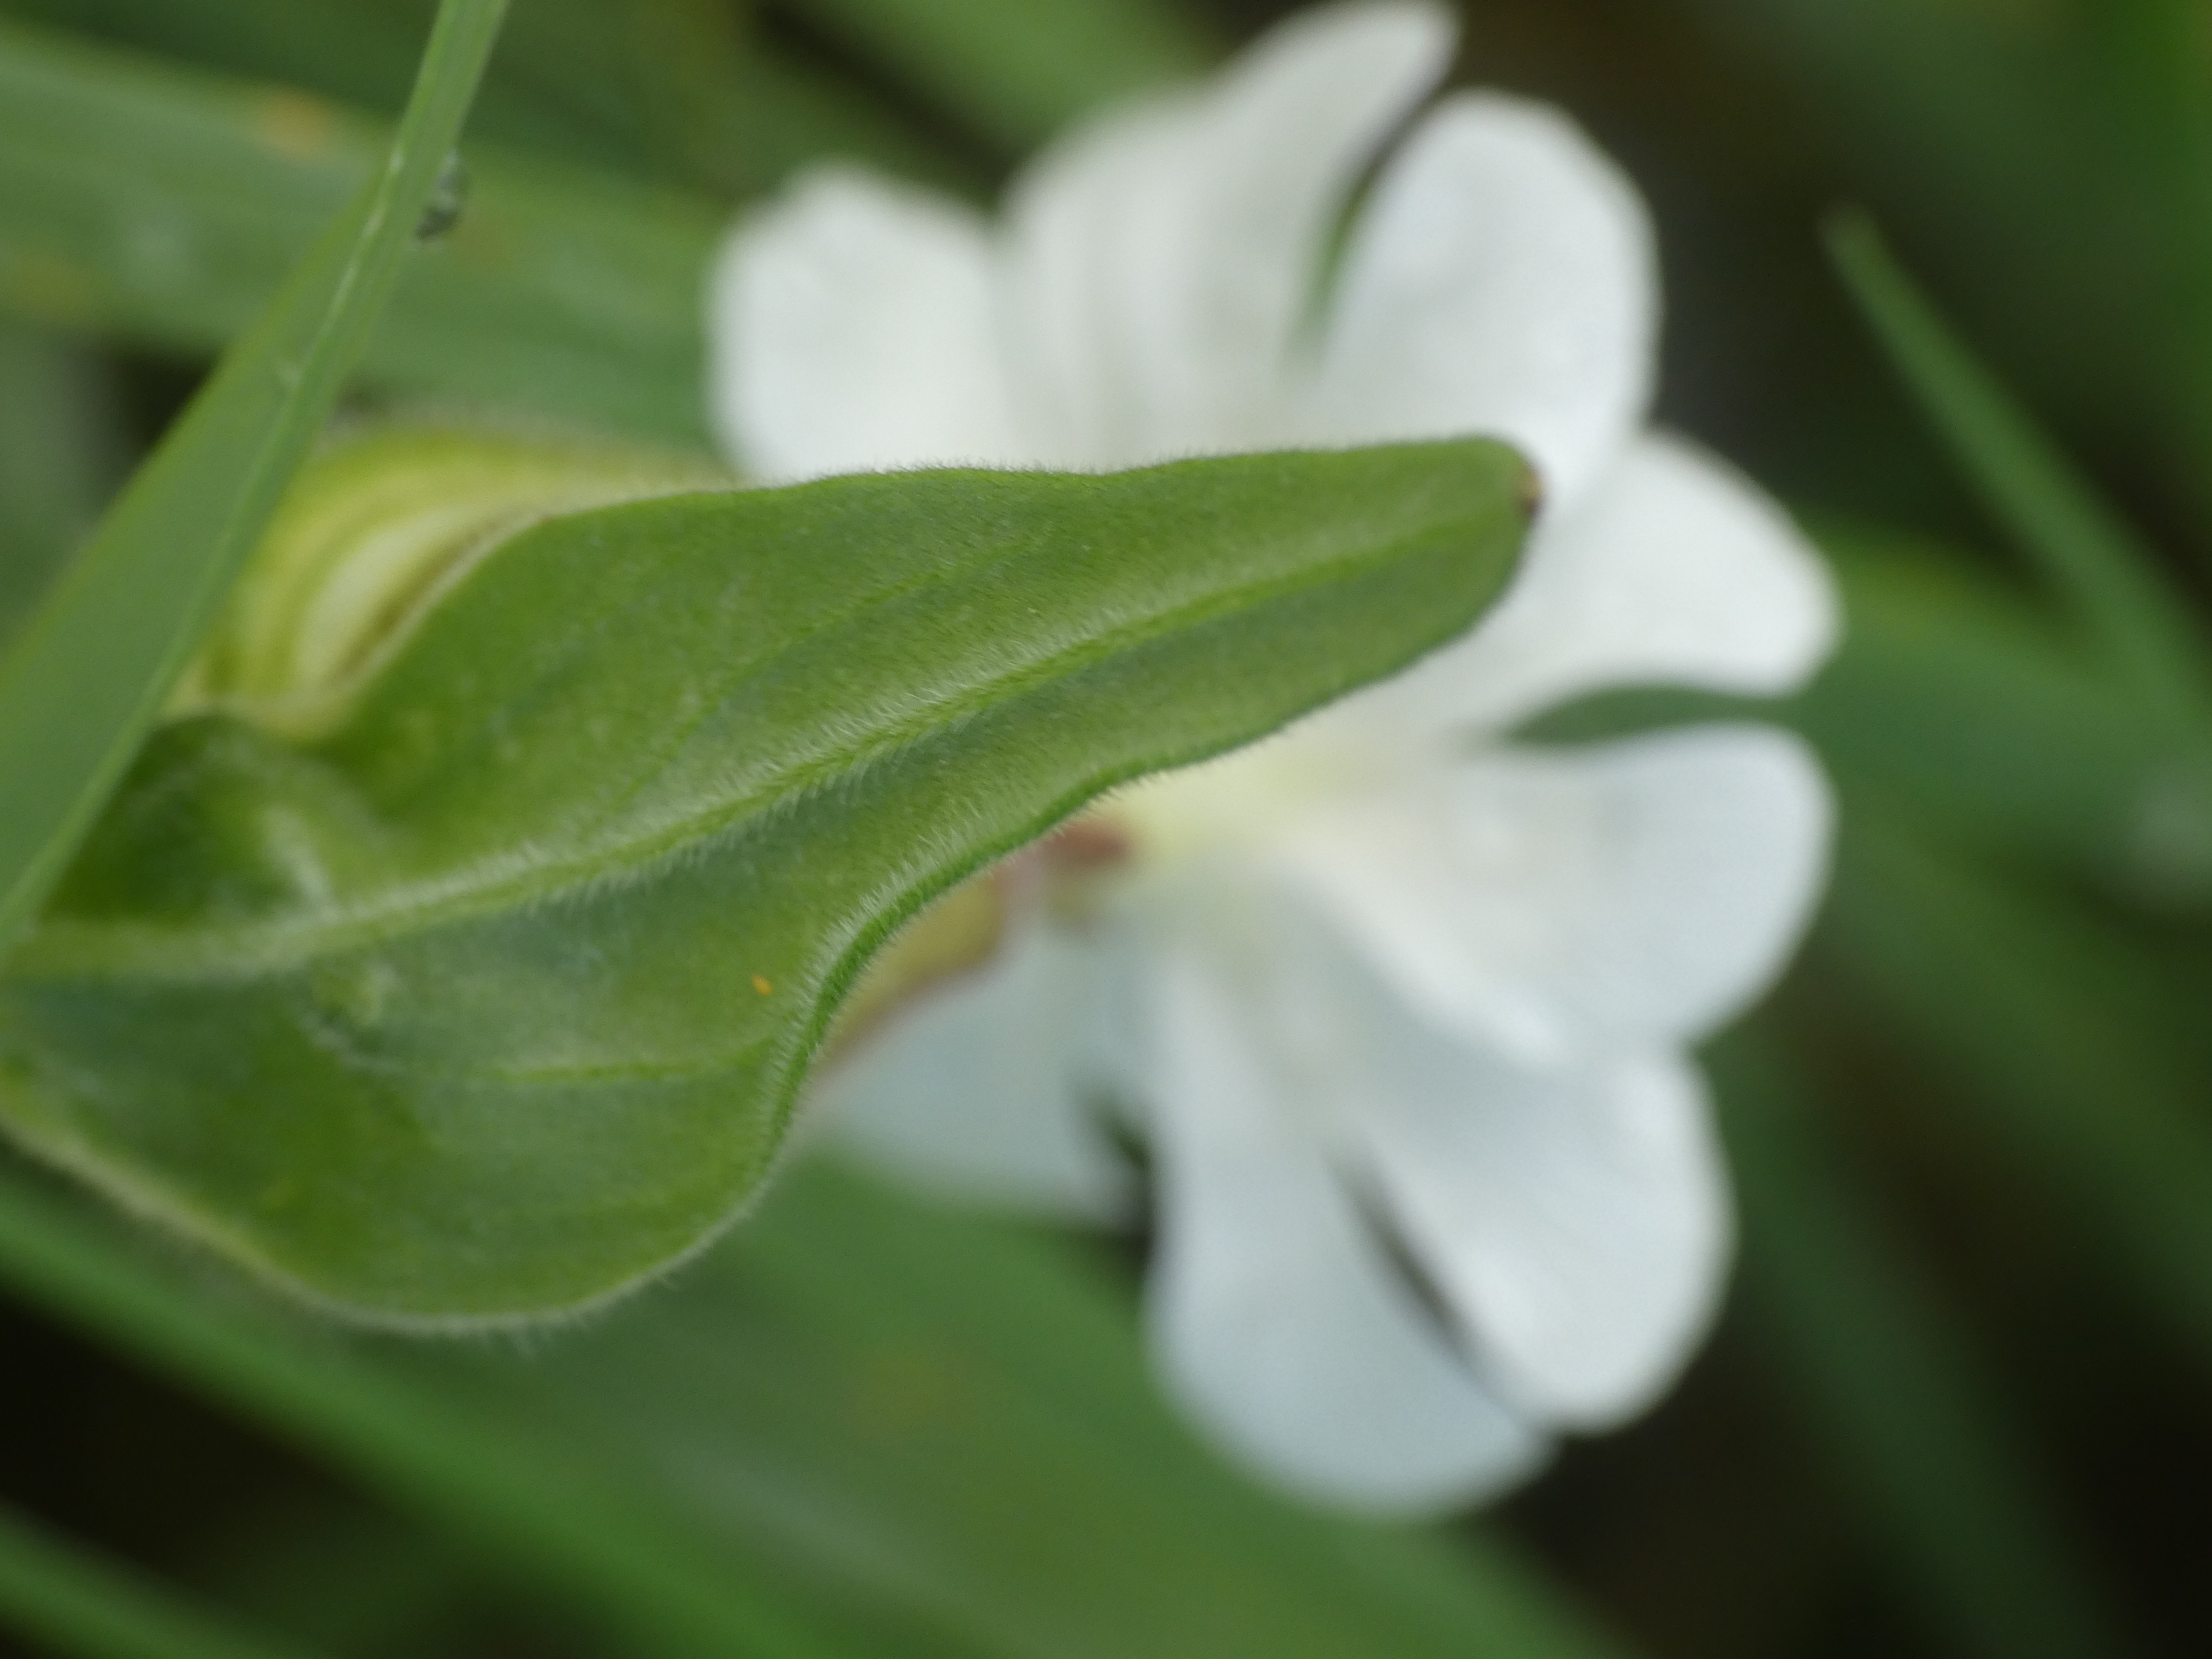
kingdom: Plantae
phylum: Tracheophyta
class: Magnoliopsida
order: Caryophyllales
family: Caryophyllaceae
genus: Silene
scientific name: Silene latifolia
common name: Aftenpragtstjerne
